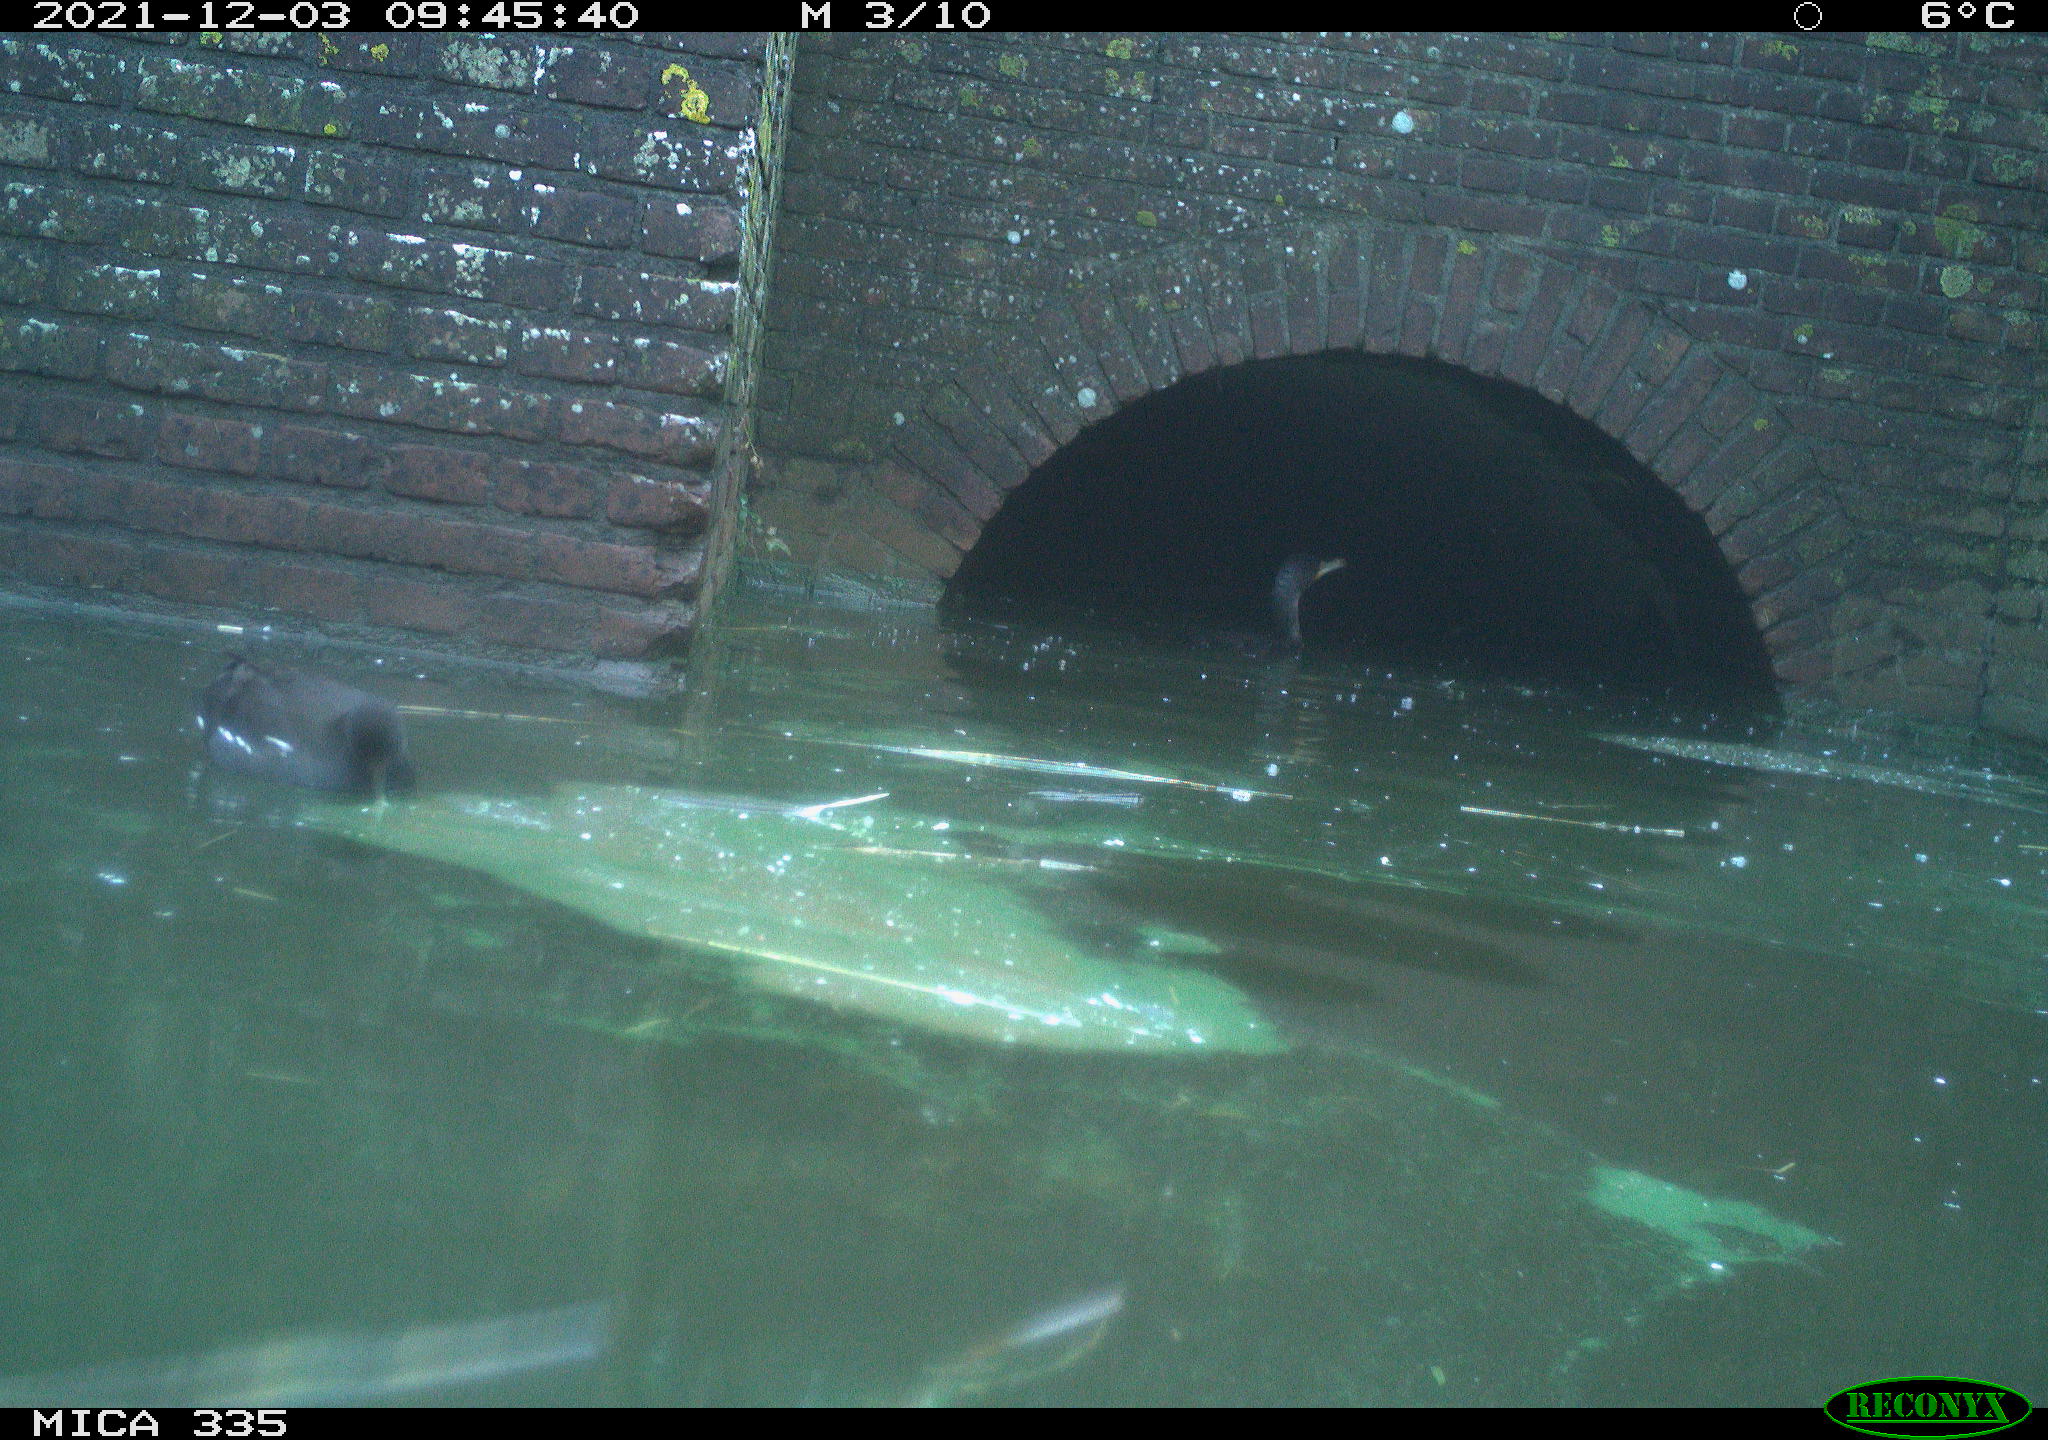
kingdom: Animalia
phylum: Chordata
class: Aves
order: Gruiformes
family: Rallidae
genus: Gallinula
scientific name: Gallinula chloropus
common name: Common moorhen
